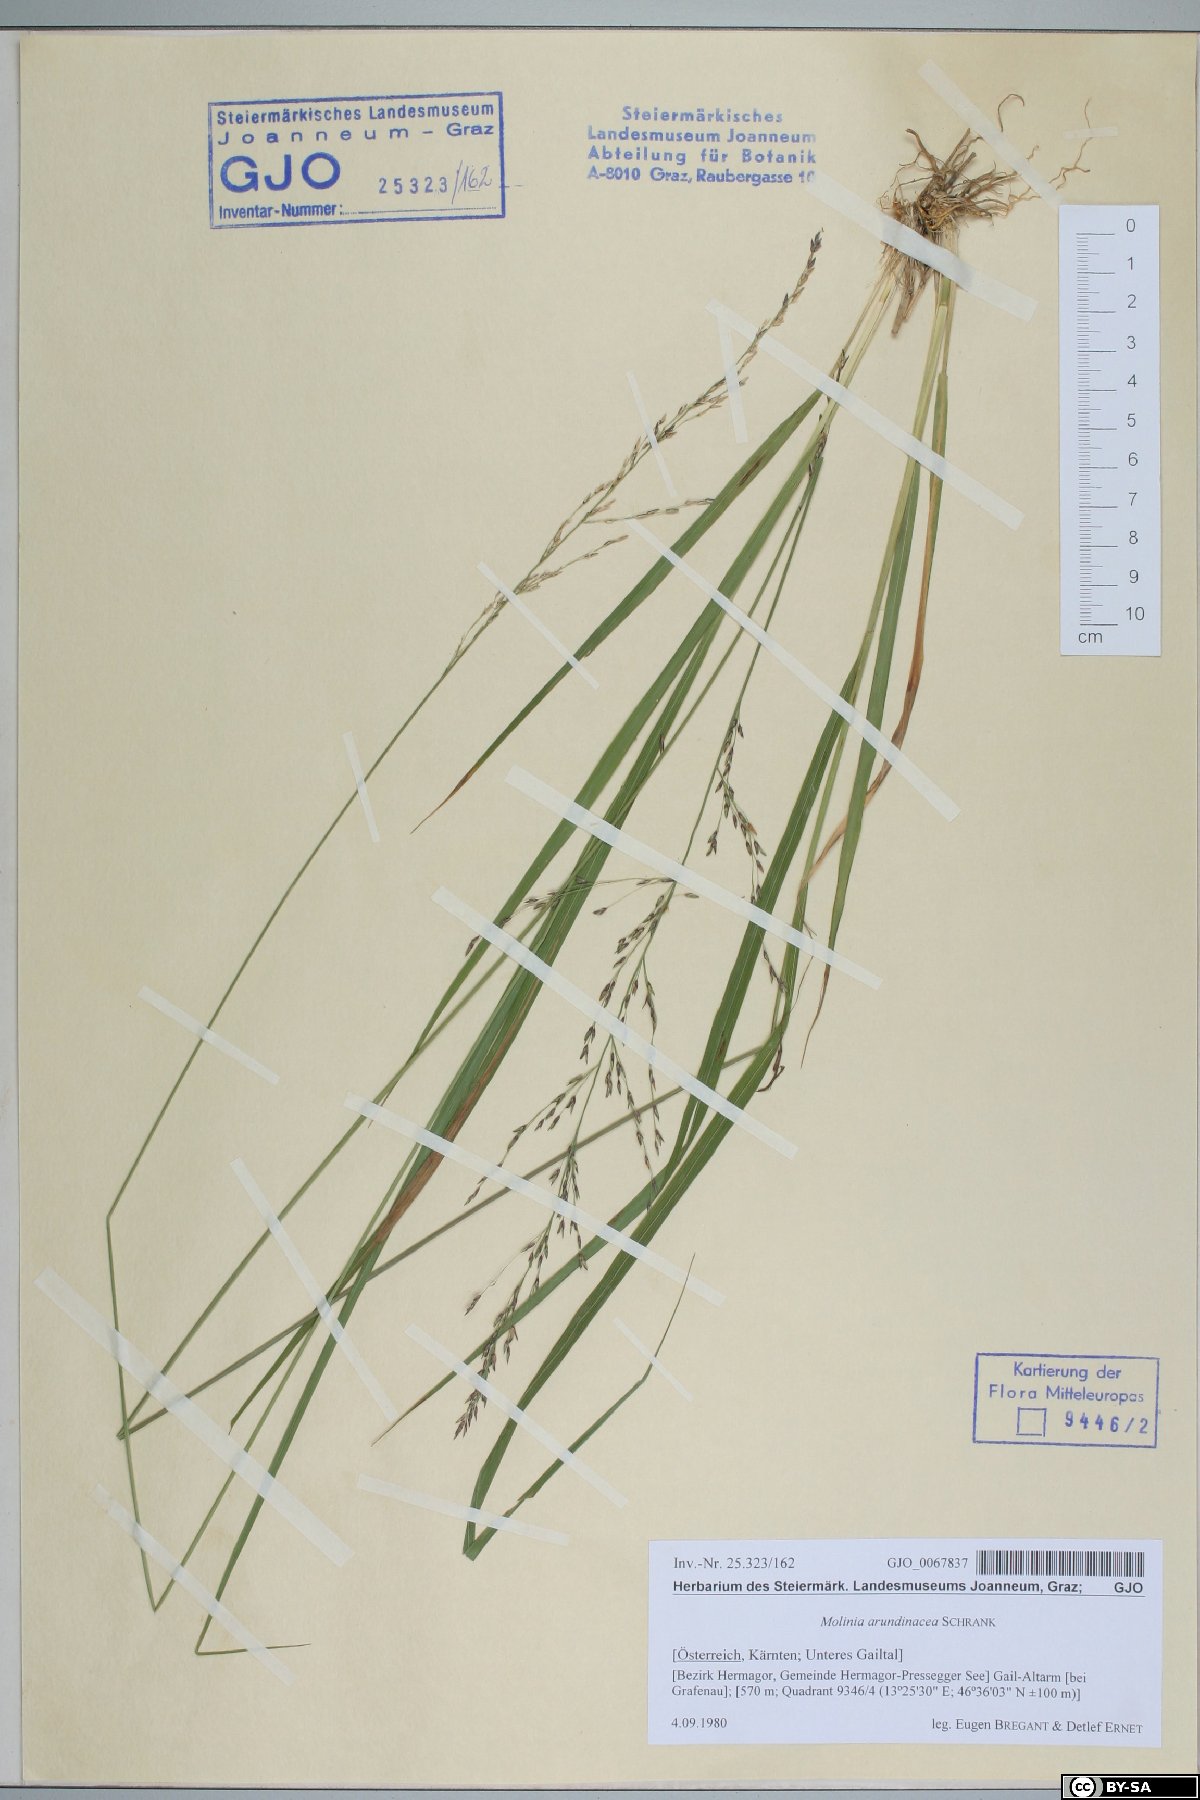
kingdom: Plantae
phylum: Tracheophyta
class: Liliopsida
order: Poales
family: Poaceae
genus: Molinia
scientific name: Molinia arundinacea
